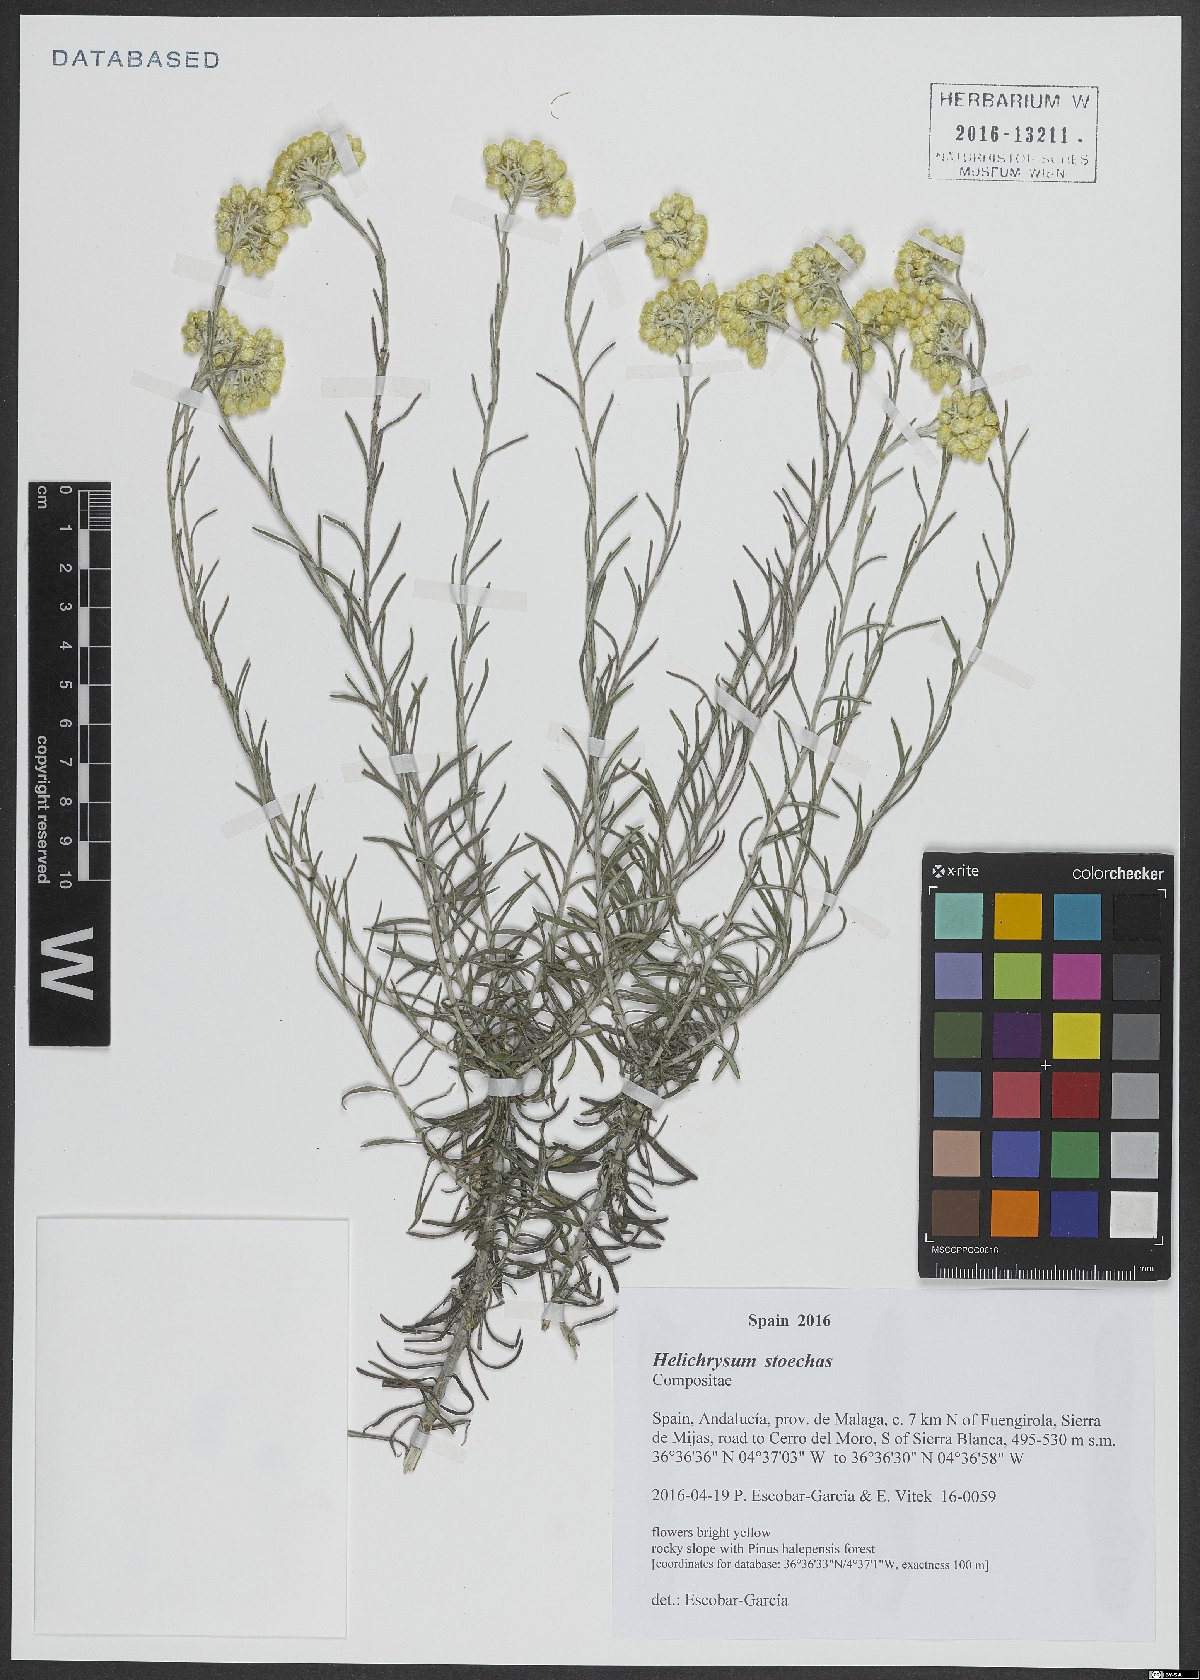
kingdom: Plantae
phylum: Tracheophyta
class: Magnoliopsida
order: Asterales
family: Asteraceae
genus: Helichrysum
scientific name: Helichrysum stoechas
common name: Goldilocks
